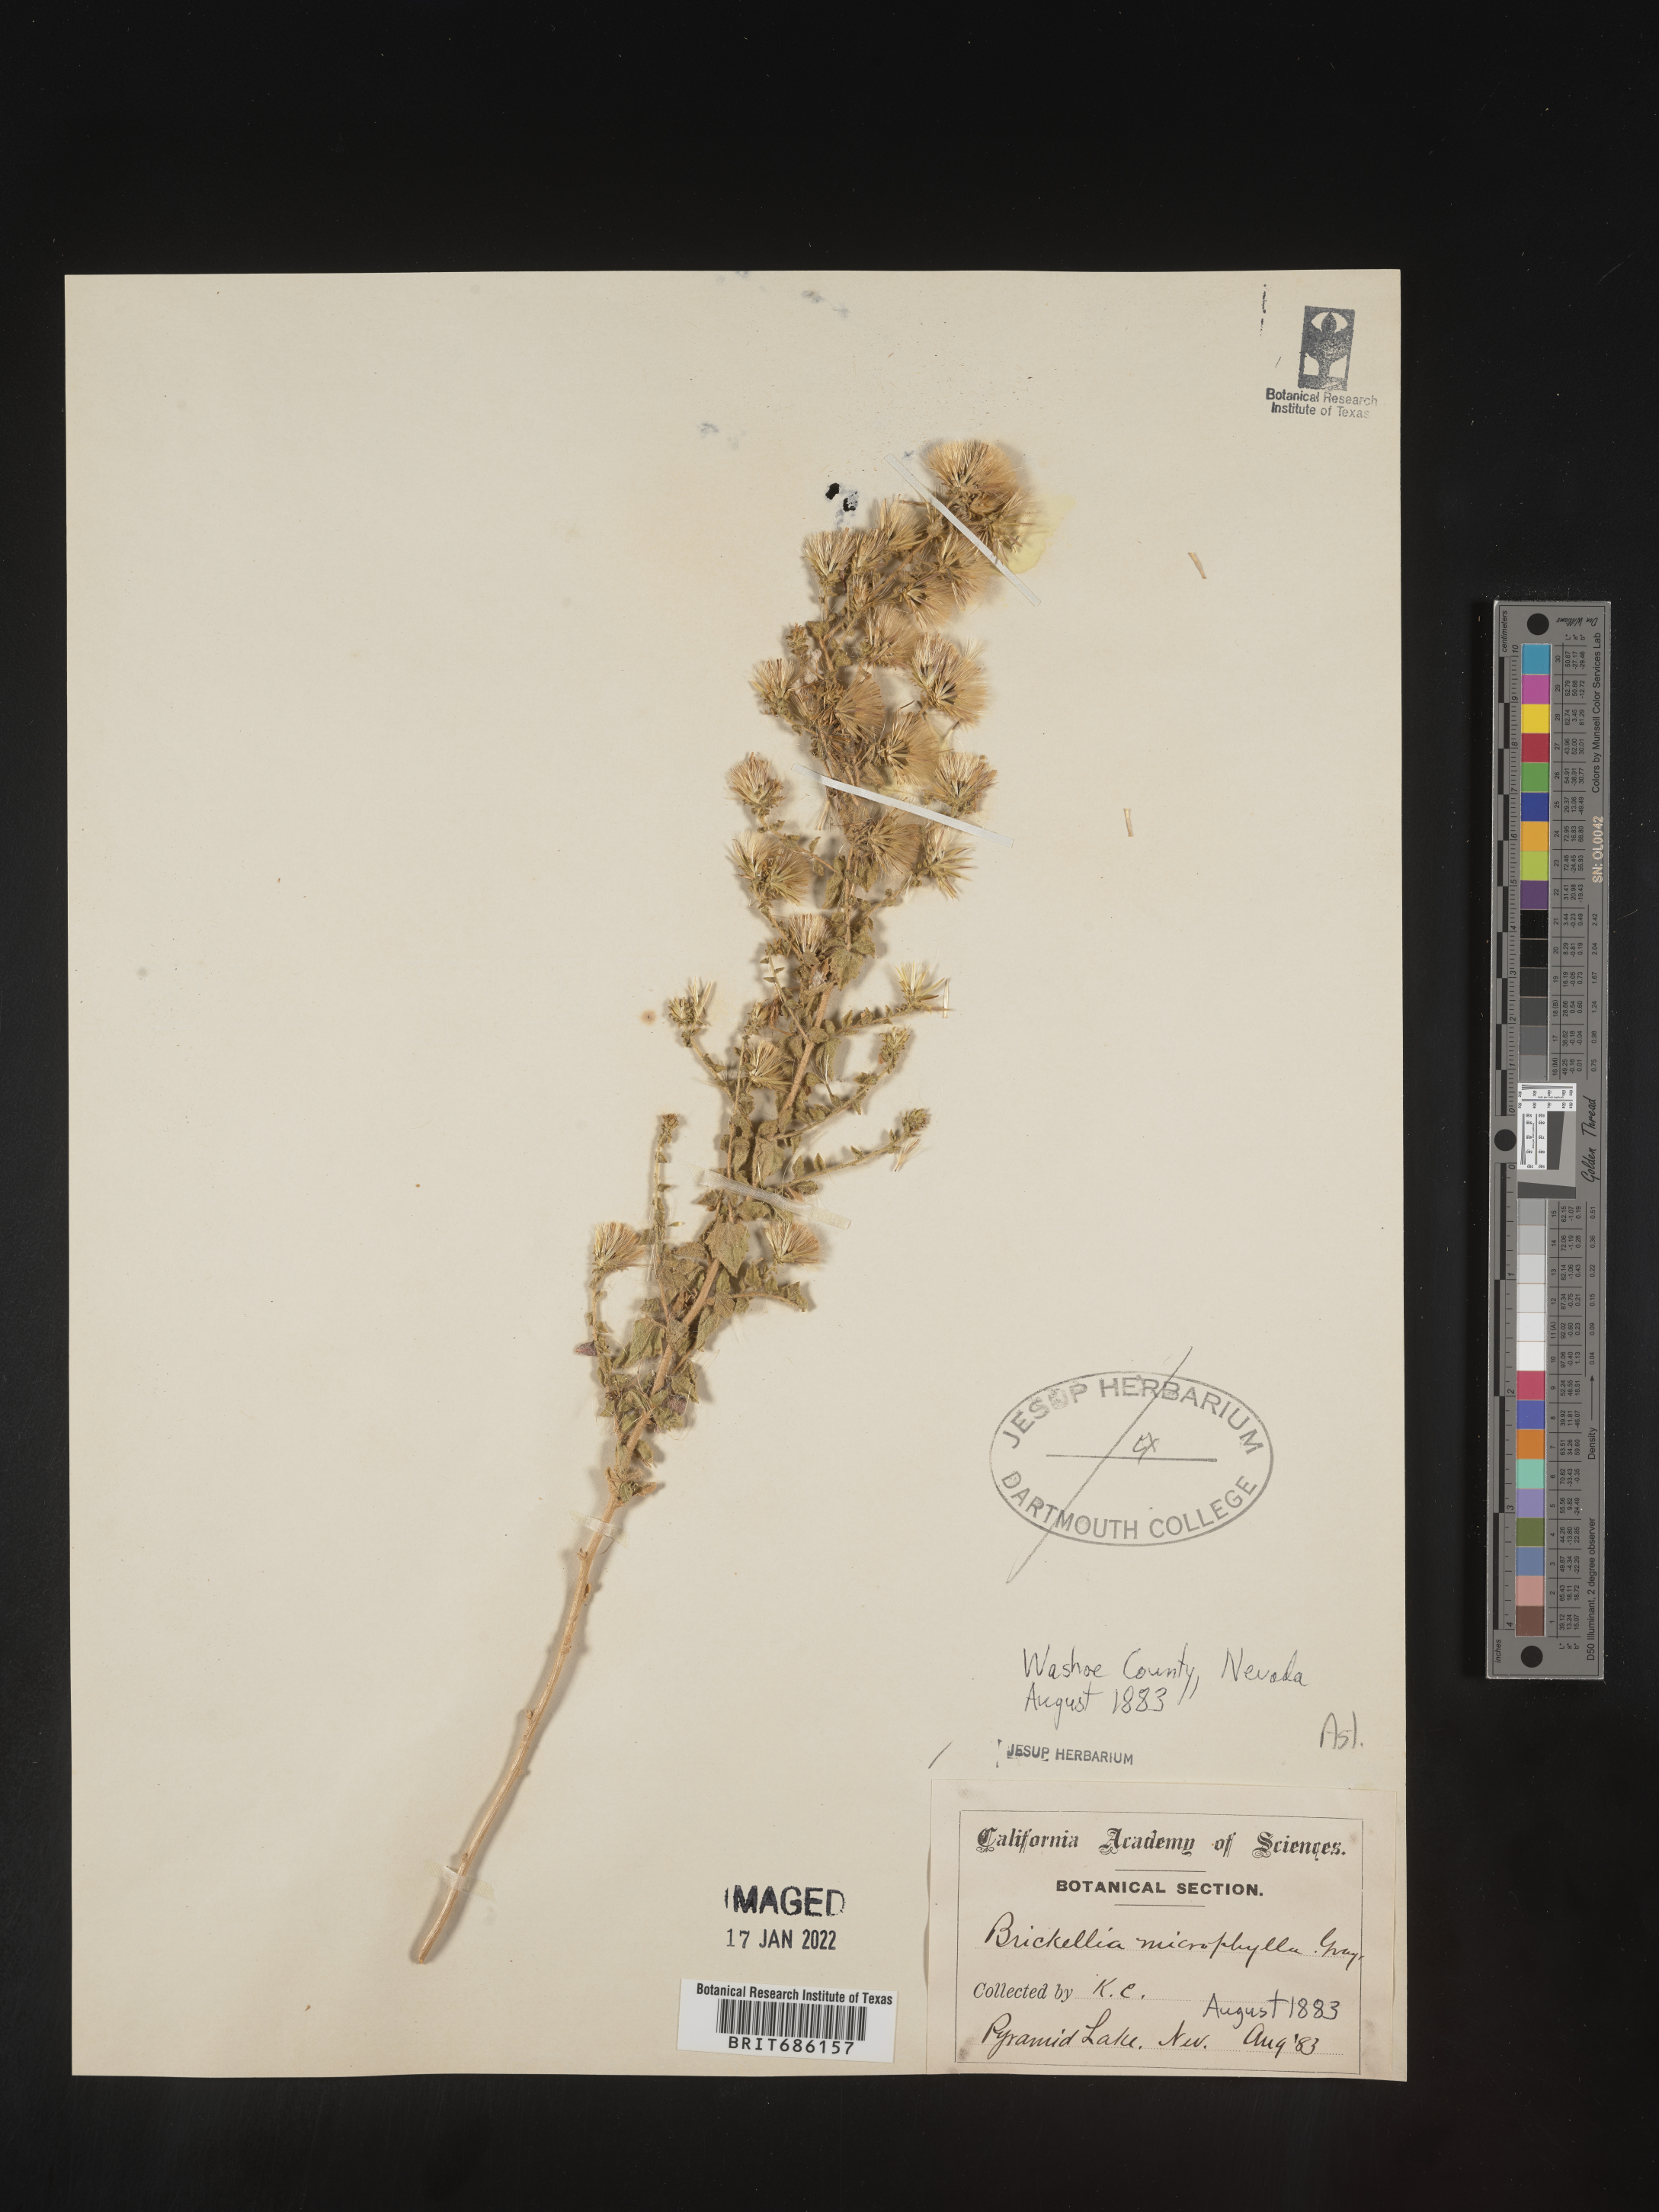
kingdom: Plantae
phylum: Tracheophyta
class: Magnoliopsida
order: Asterales
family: Asteraceae
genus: Brickellia
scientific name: Brickellia microphylla
